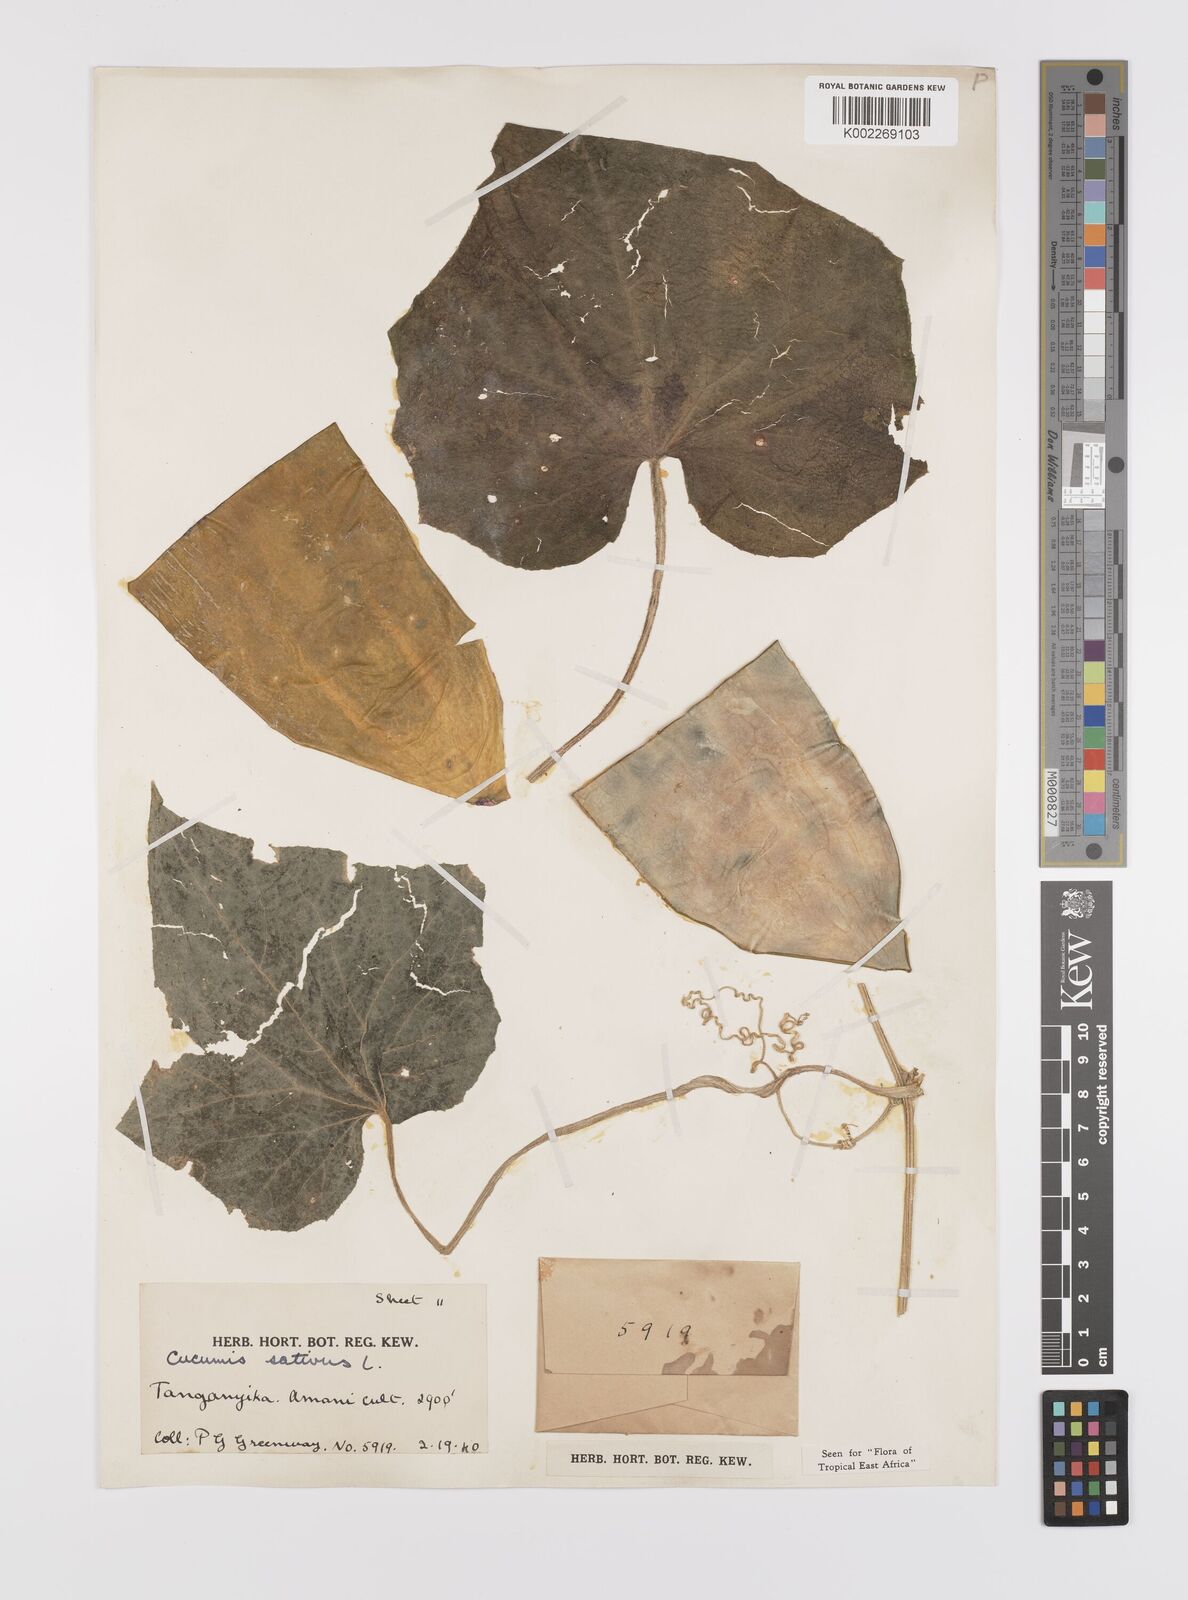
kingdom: Plantae
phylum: Tracheophyta
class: Magnoliopsida
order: Cucurbitales
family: Cucurbitaceae
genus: Cucumis
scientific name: Cucumis sativus
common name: Cucumber
